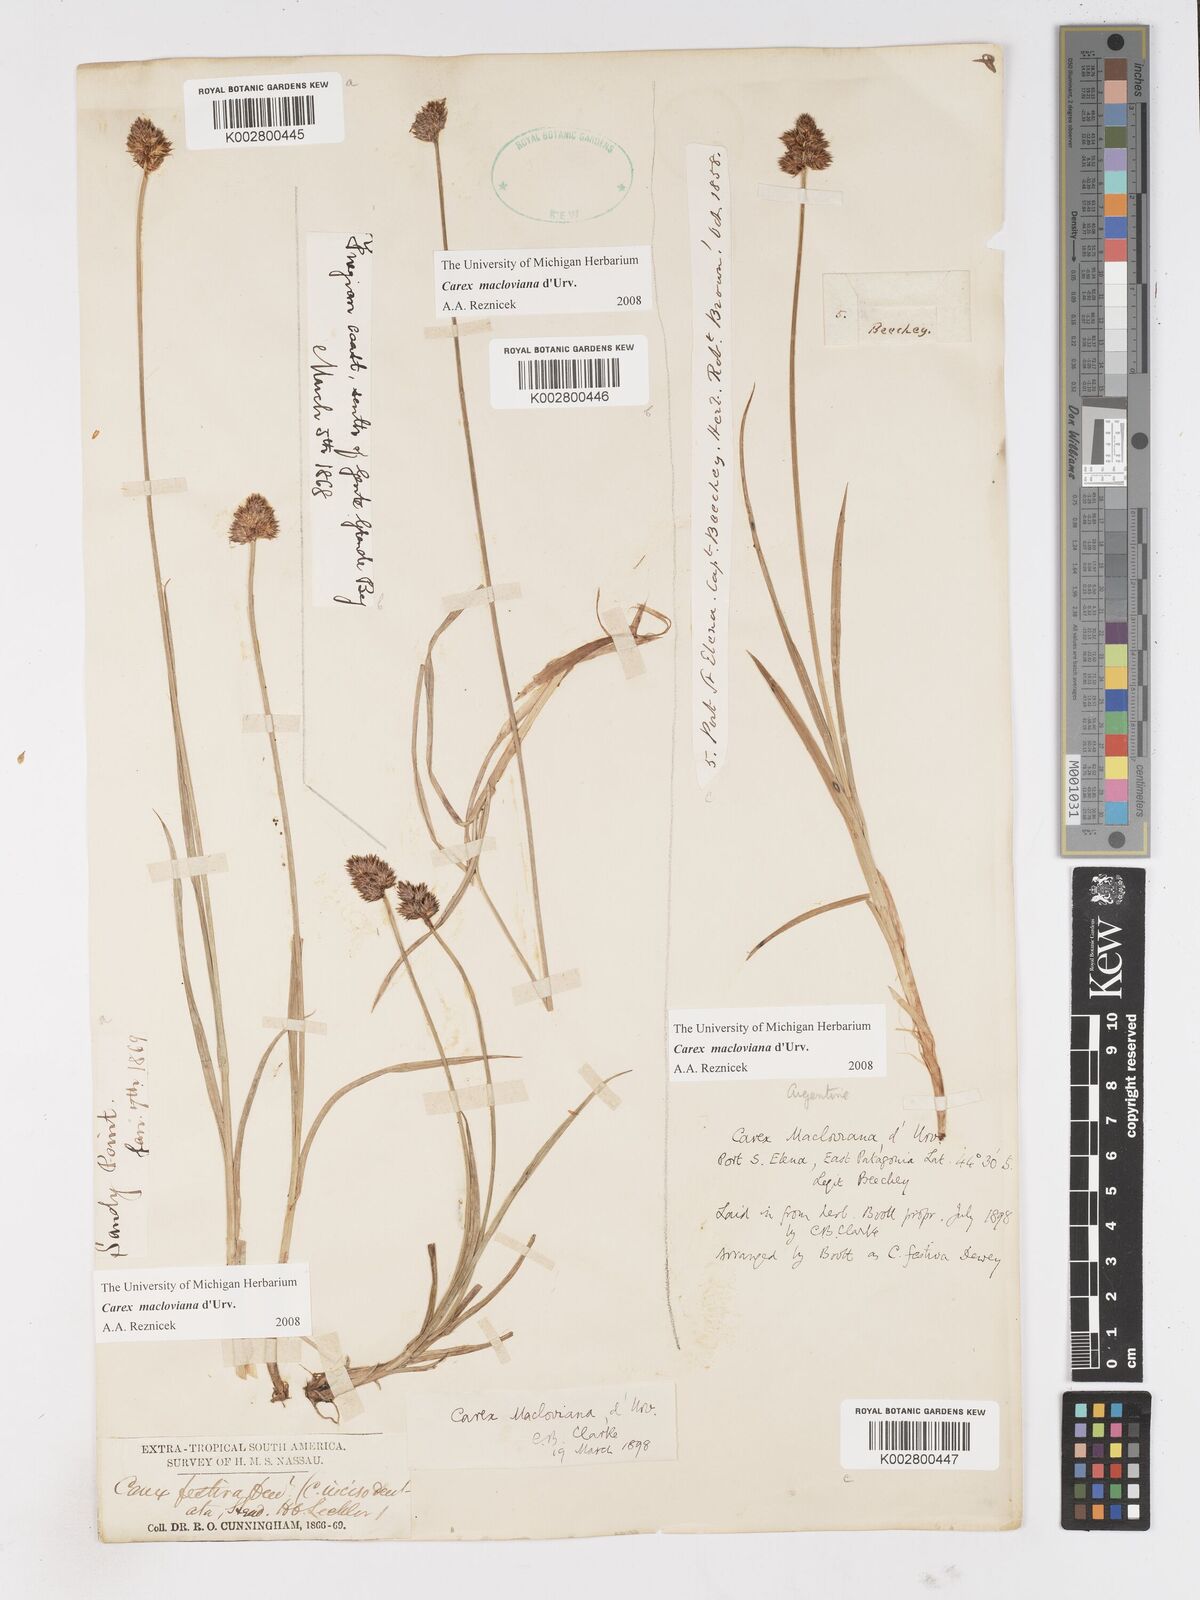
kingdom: Plantae
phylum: Tracheophyta
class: Liliopsida
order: Poales
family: Cyperaceae
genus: Carex
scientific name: Carex subfusca
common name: Brown sedge
